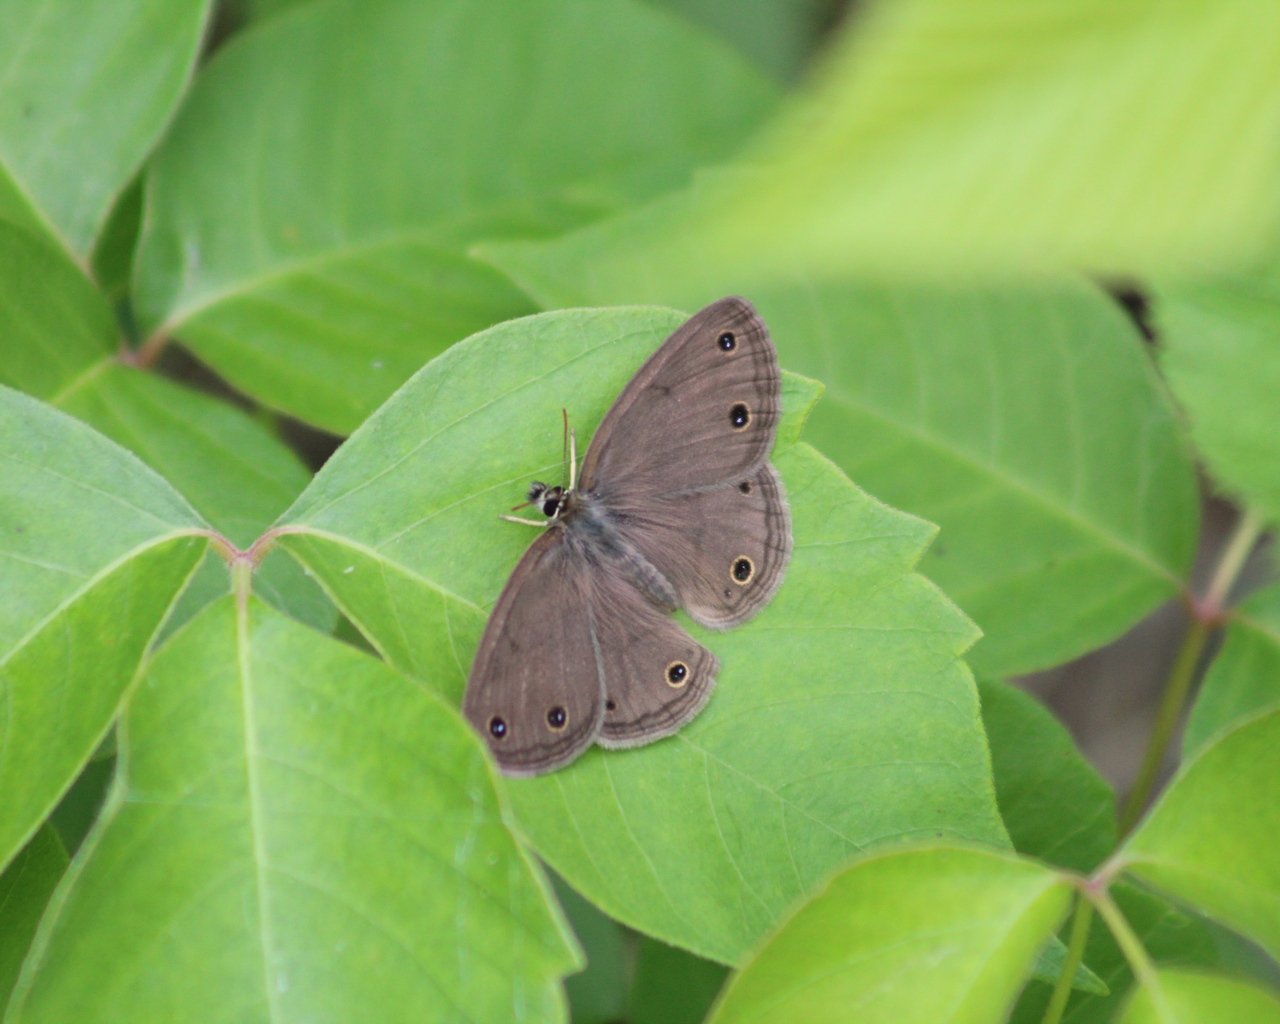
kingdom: Animalia
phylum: Arthropoda
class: Insecta
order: Lepidoptera
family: Nymphalidae
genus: Euptychia
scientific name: Euptychia cymela
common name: Little Wood Satyr
